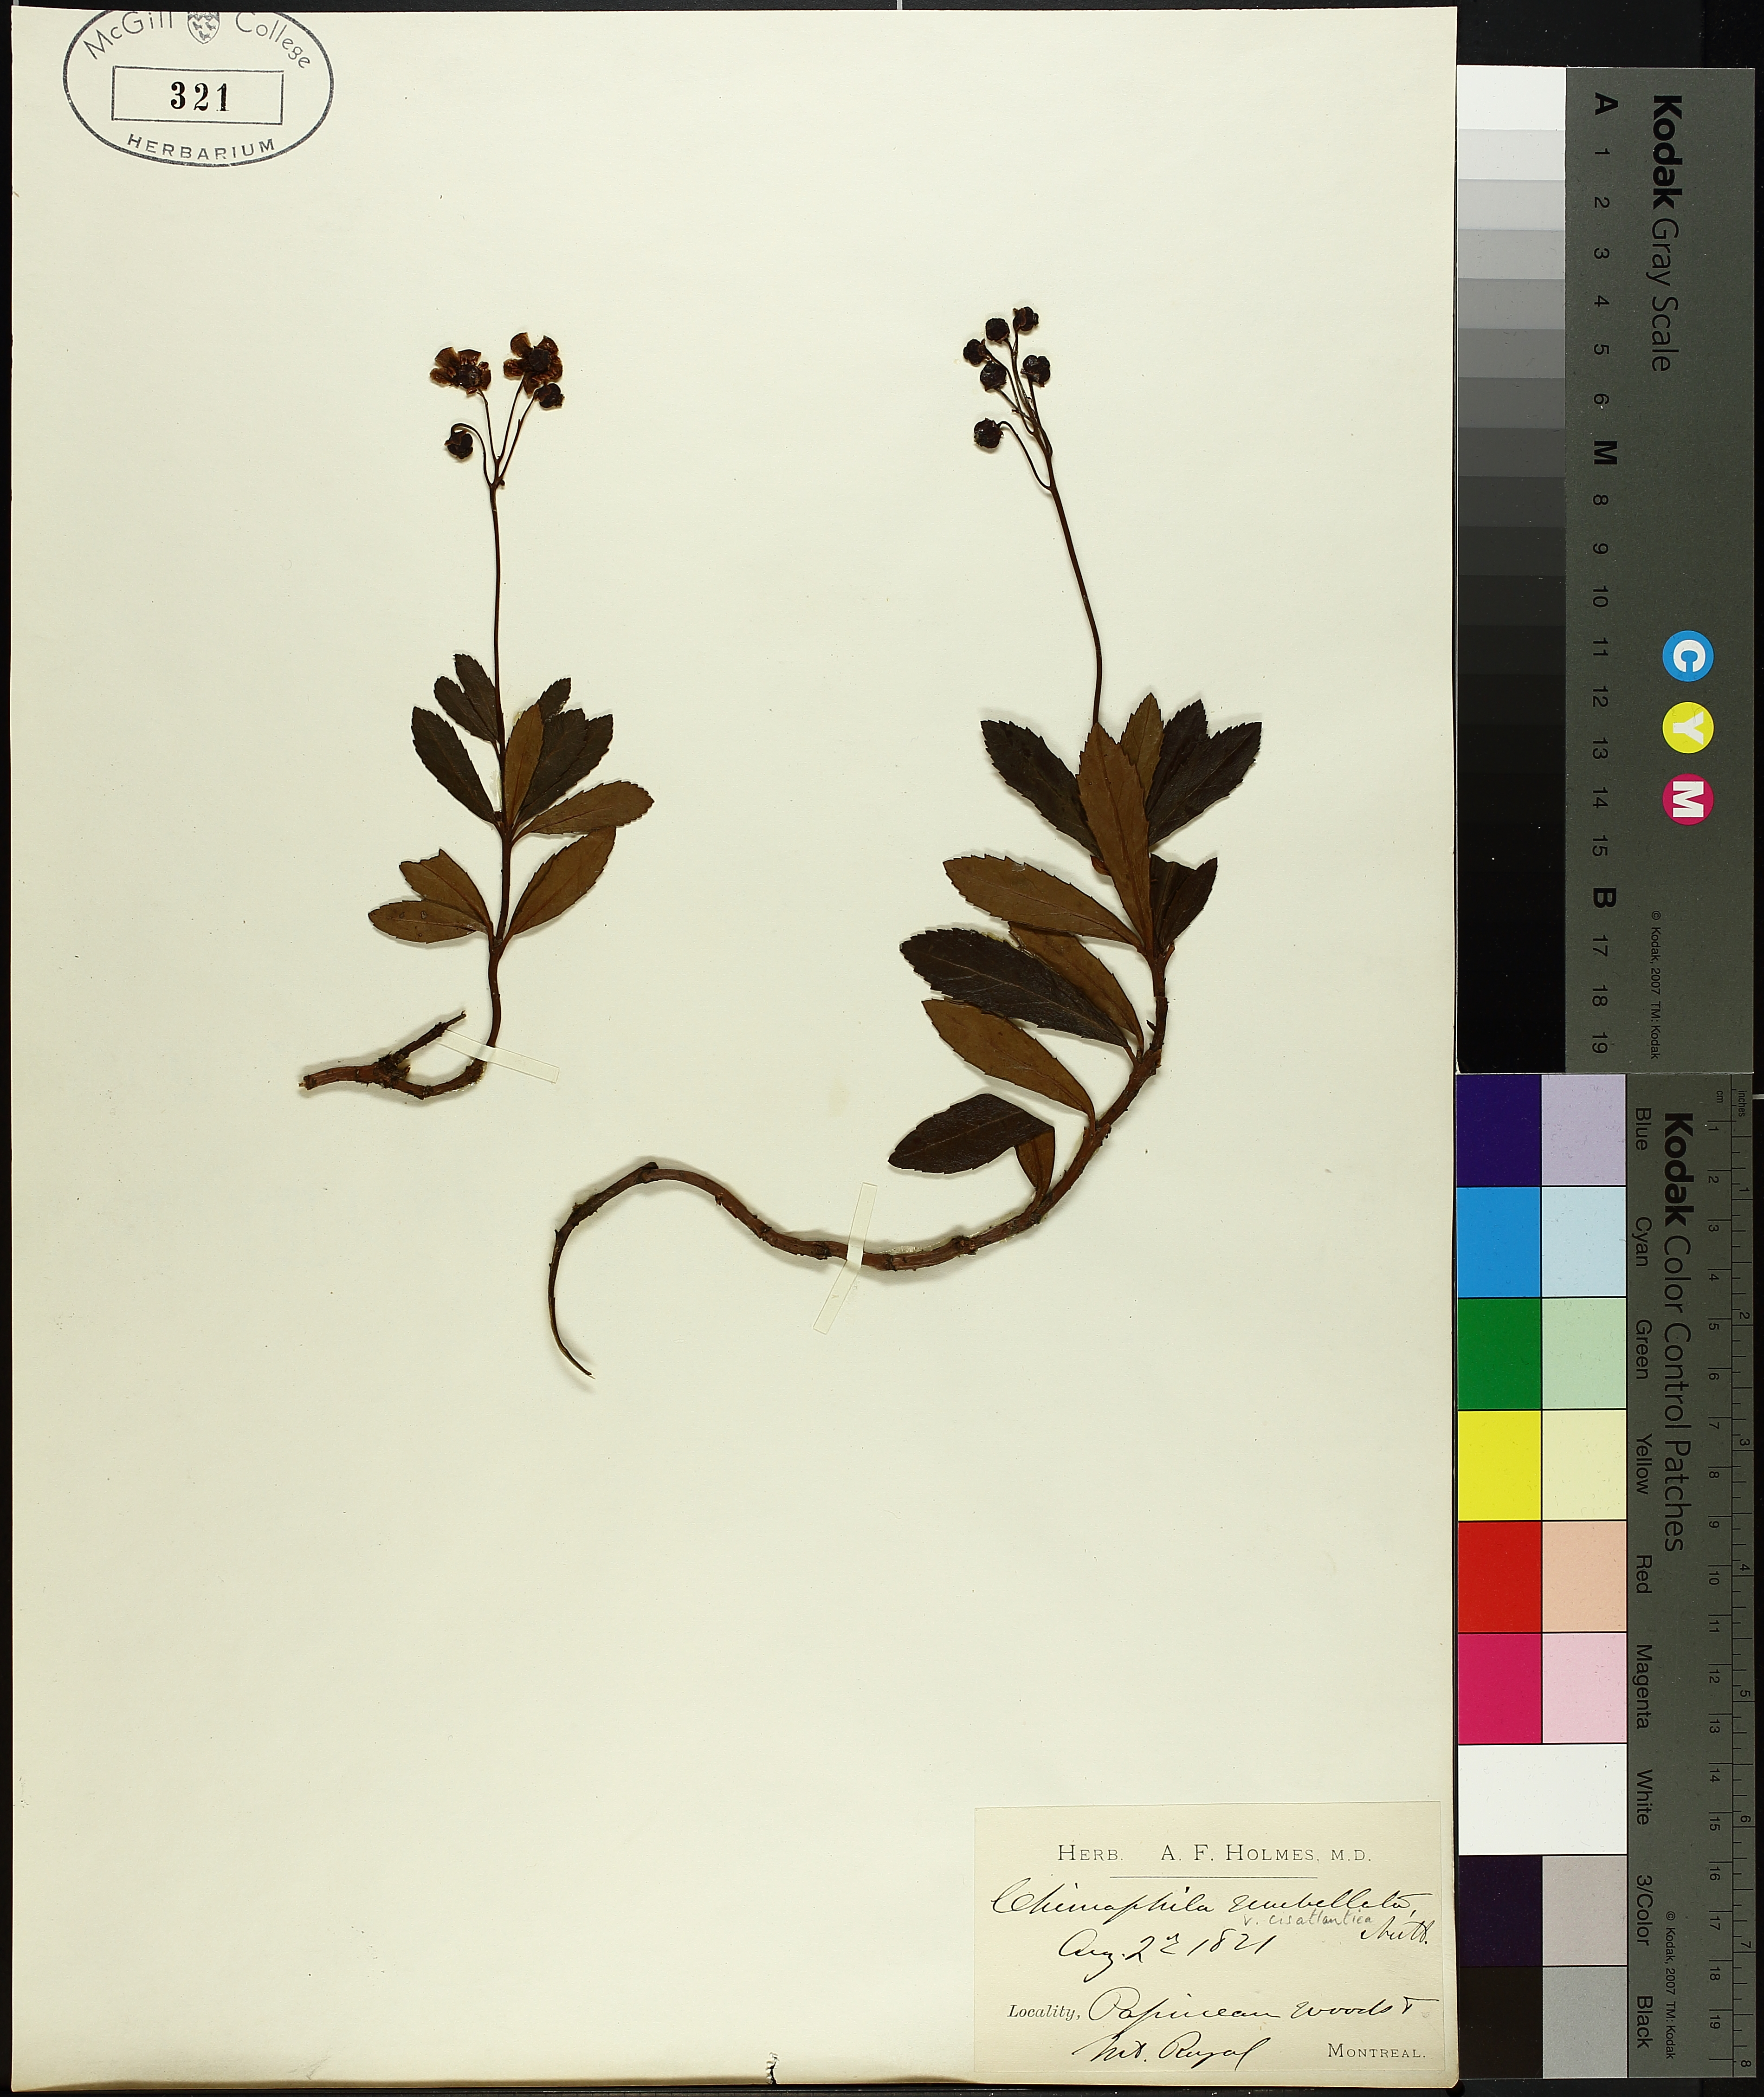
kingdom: Plantae
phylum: Tracheophyta
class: Magnoliopsida
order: Ericales
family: Ericaceae
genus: Chimaphila
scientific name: Chimaphila umbellata
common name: Pipsissewa
